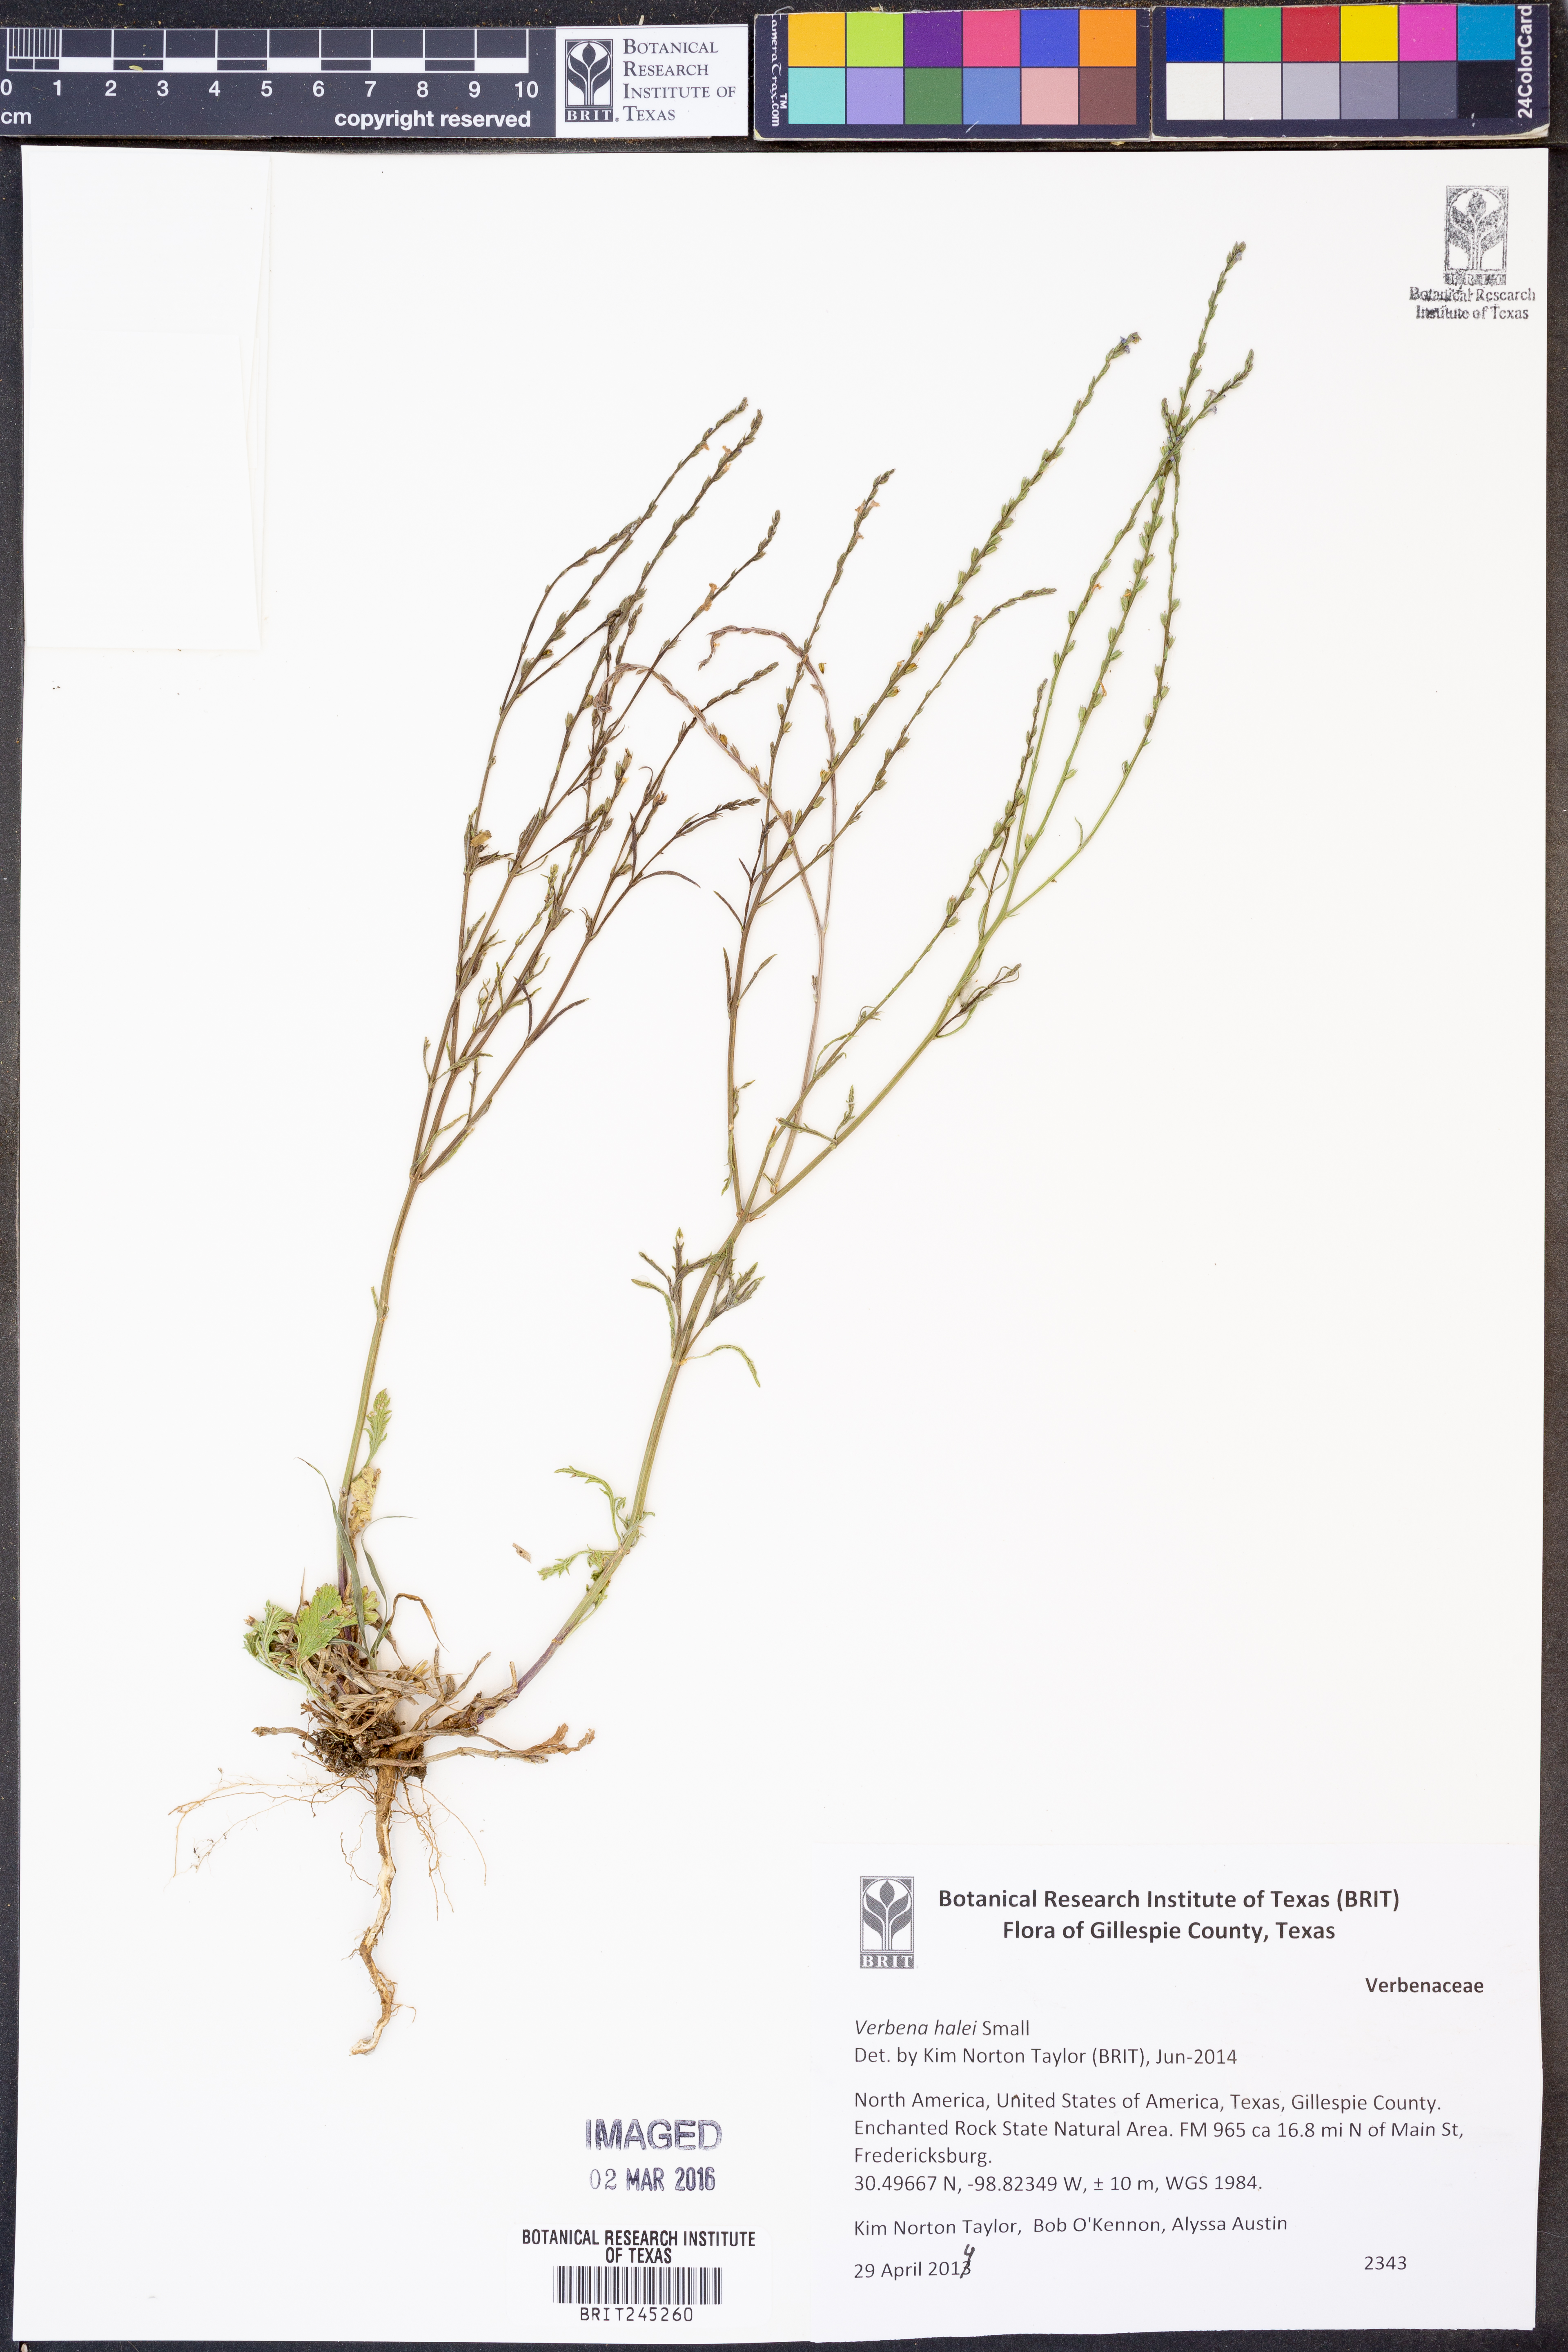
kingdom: Plantae
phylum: Tracheophyta
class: Magnoliopsida
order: Lamiales
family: Verbenaceae
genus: Verbena
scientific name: Verbena halei
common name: Texas vervain
